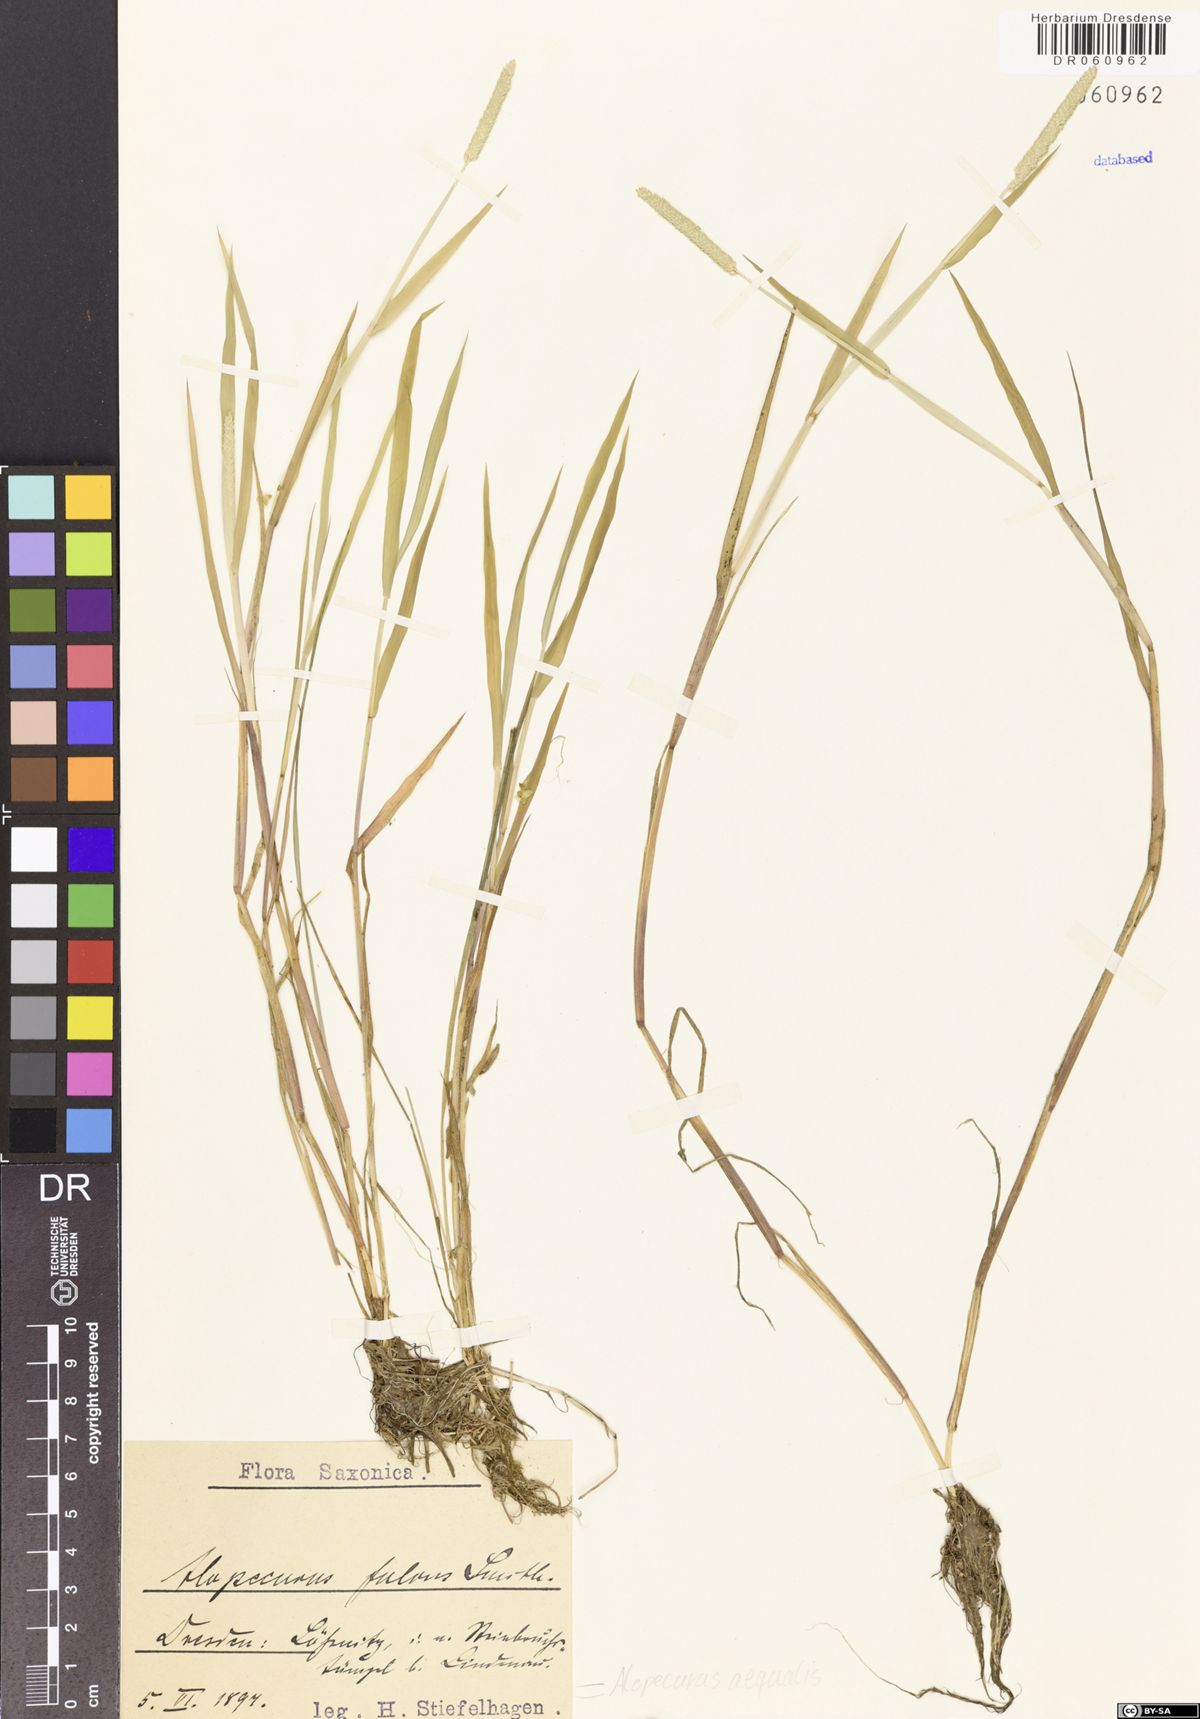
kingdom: Plantae
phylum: Tracheophyta
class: Liliopsida
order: Poales
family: Poaceae
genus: Alopecurus
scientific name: Alopecurus aequalis
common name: Orange foxtail
